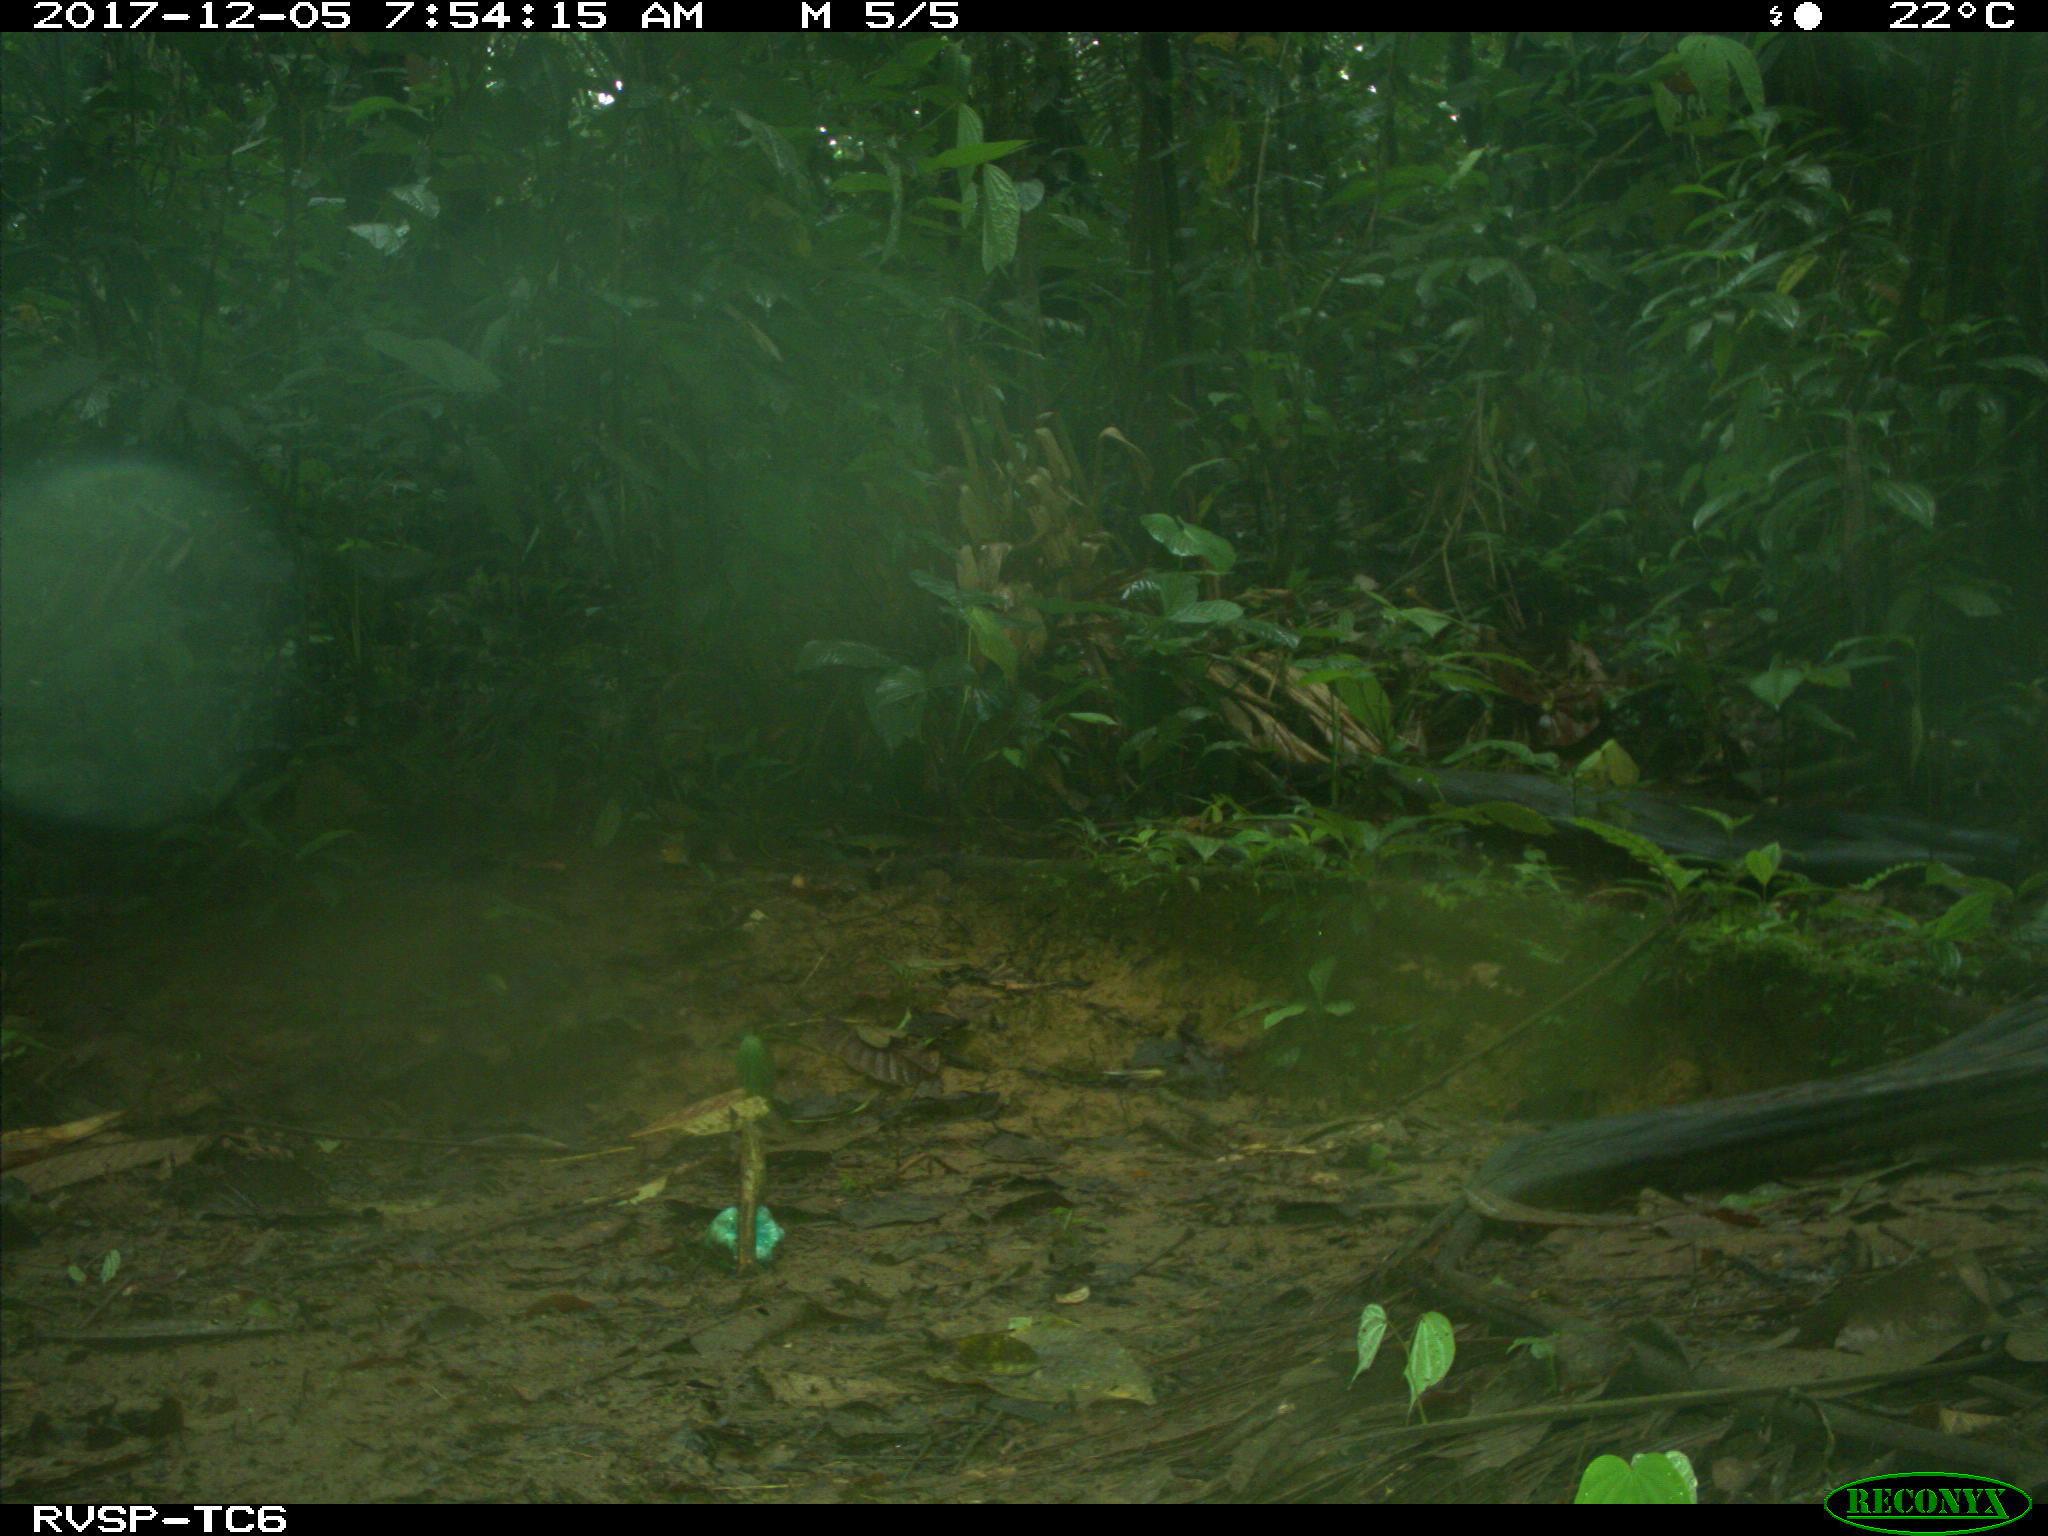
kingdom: Animalia
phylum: Chordata
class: Mammalia
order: Rodentia
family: Dasyproctidae
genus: Dasyprocta
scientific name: Dasyprocta punctata
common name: Central american agouti
